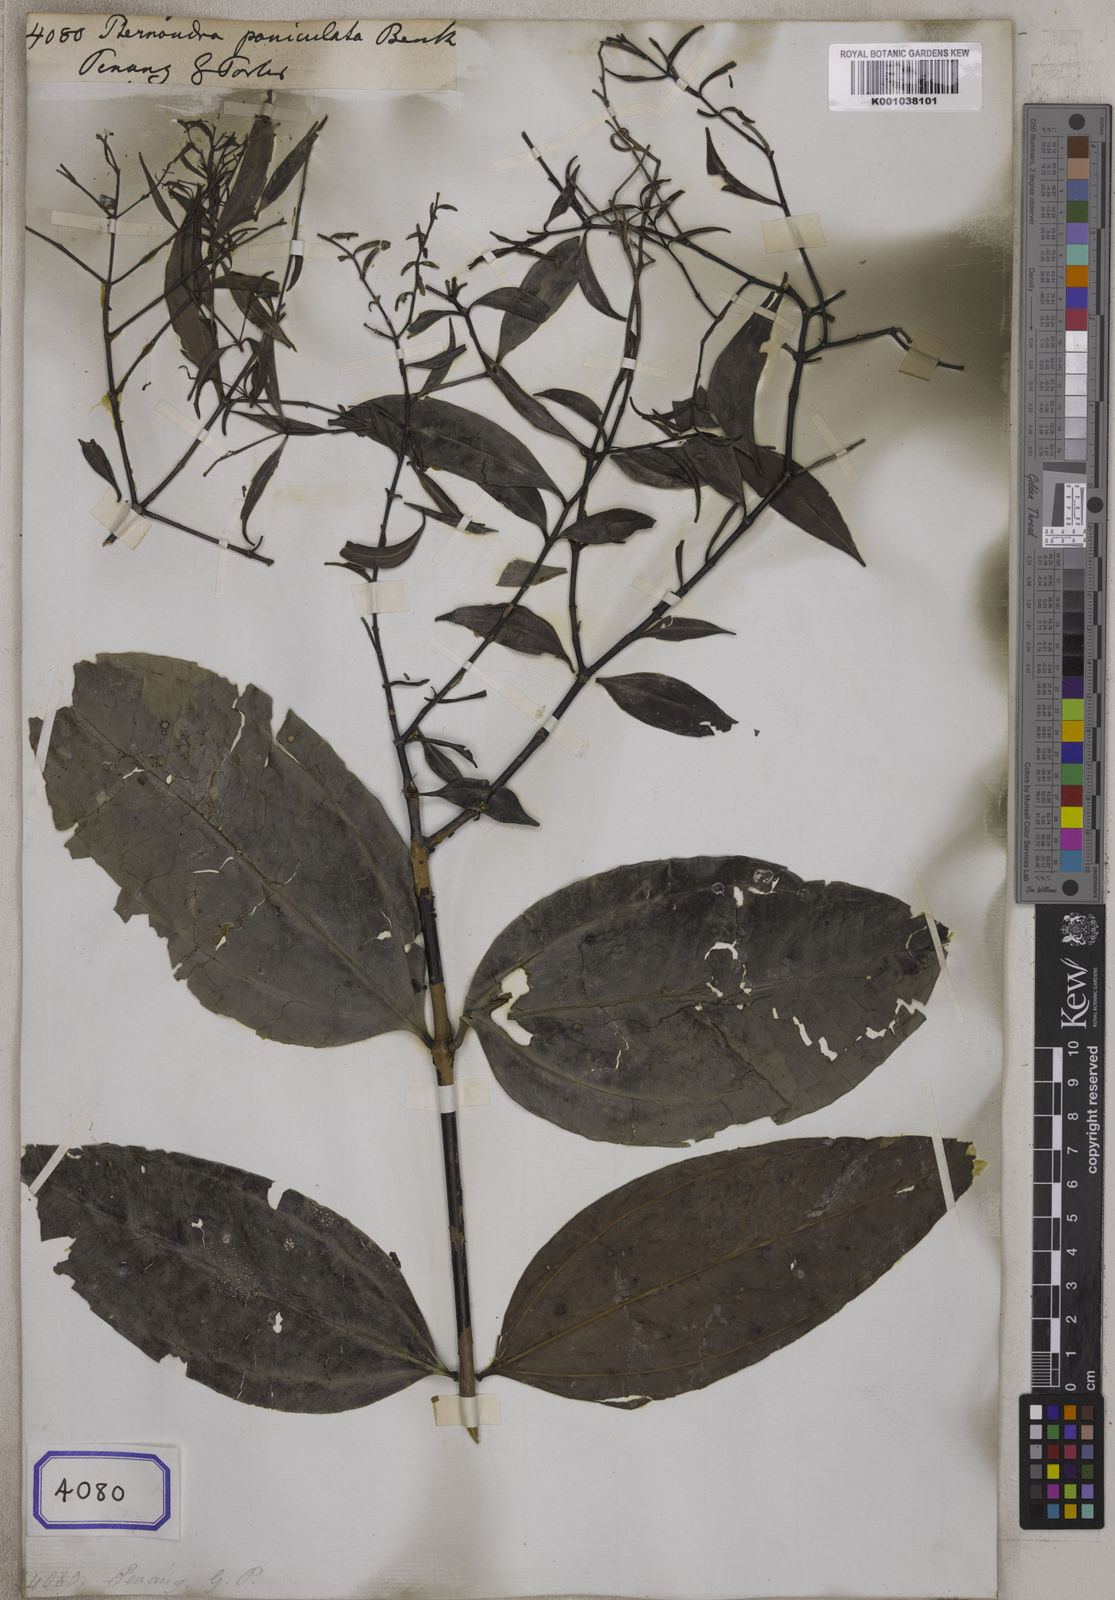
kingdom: Plantae
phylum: Tracheophyta
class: Magnoliopsida
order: Myrtales
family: Melastomataceae
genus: Pternandra
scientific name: Pternandra paniculata
